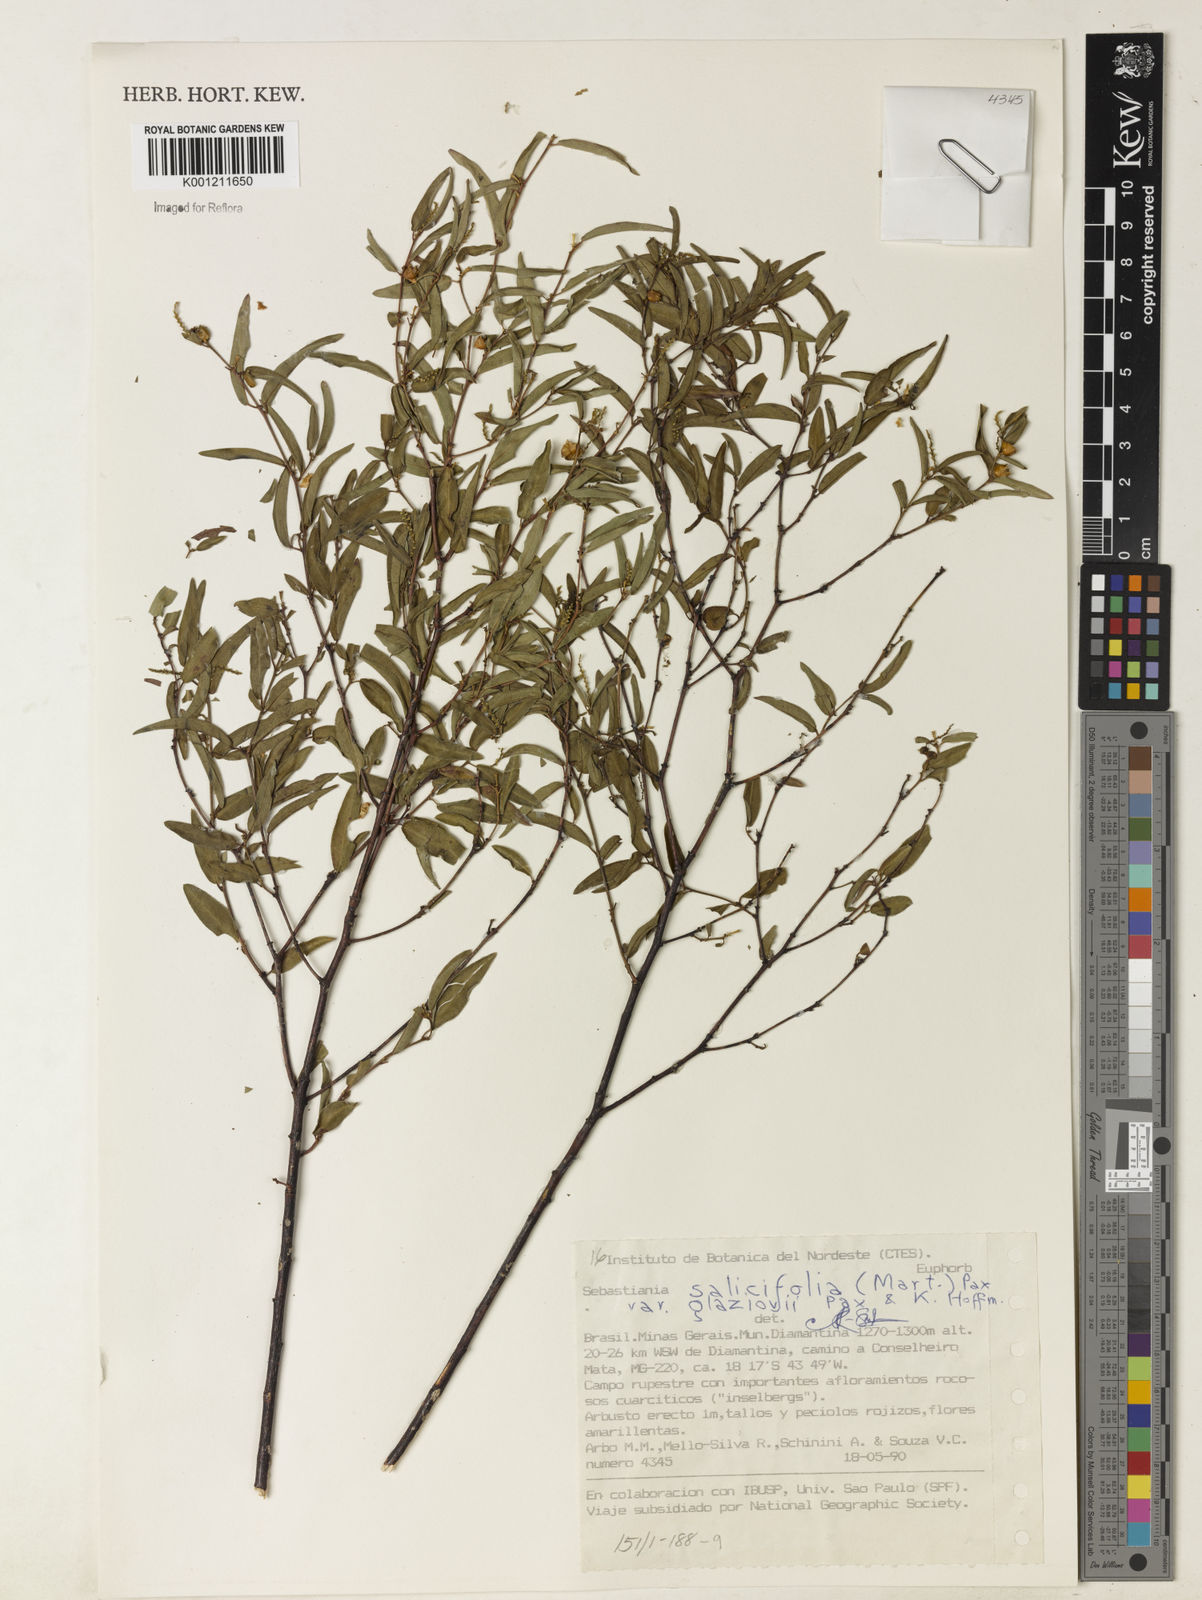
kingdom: Plantae
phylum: Tracheophyta
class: Magnoliopsida
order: Malpighiales
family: Euphorbiaceae
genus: Microstachys
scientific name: Microstachys
